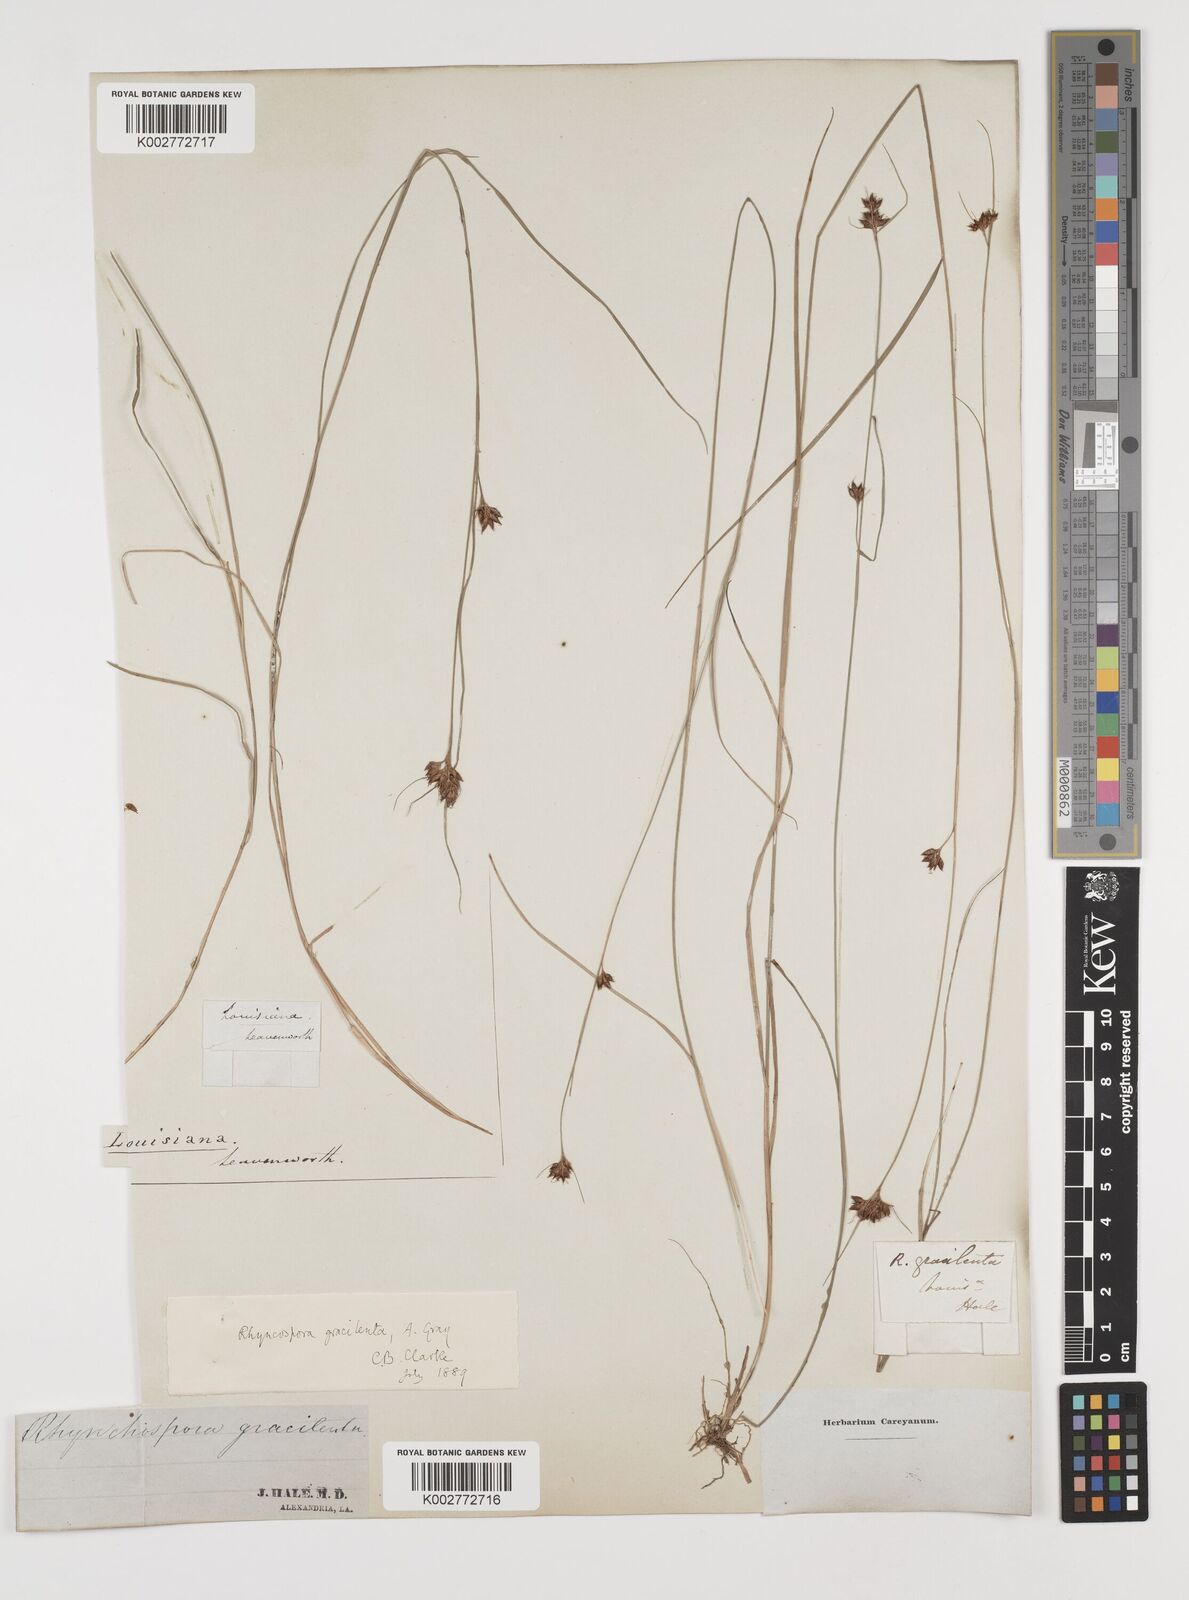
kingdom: Plantae
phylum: Tracheophyta
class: Liliopsida
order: Poales
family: Cyperaceae
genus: Rhynchospora
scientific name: Rhynchospora gracilenta
